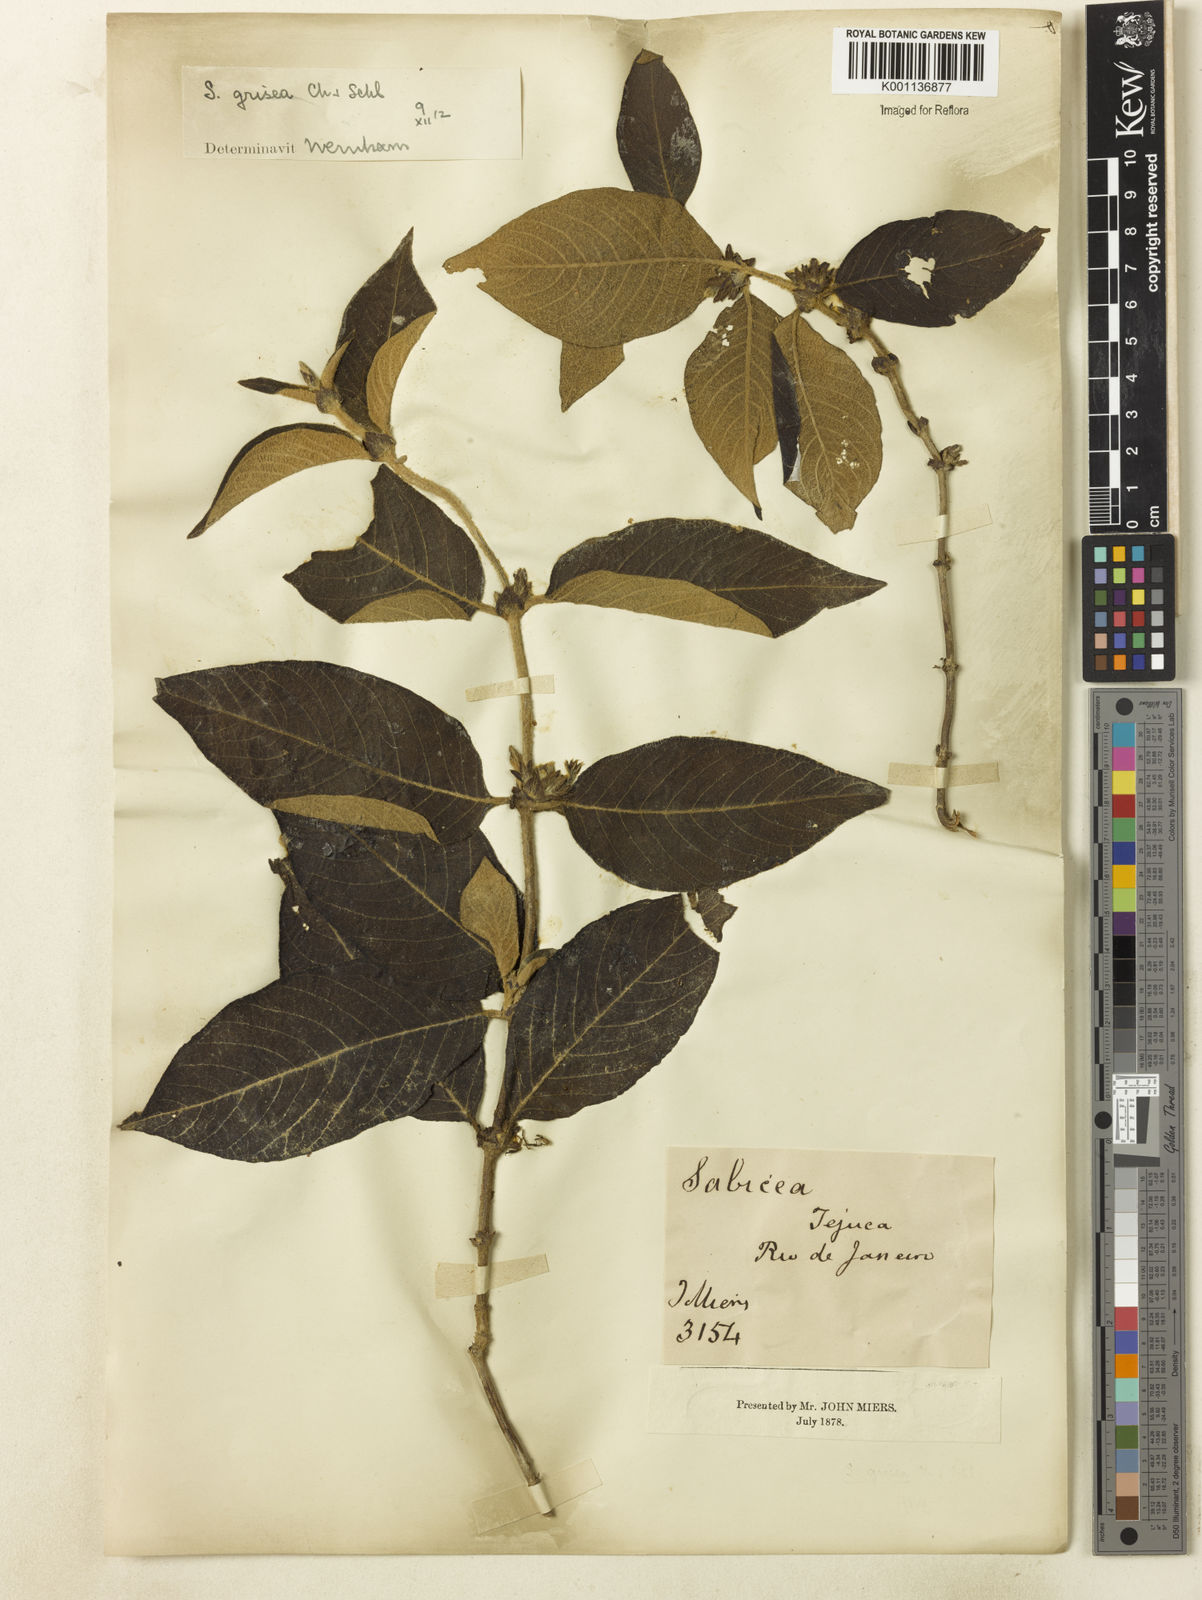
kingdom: Plantae
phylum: Tracheophyta
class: Magnoliopsida
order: Gentianales
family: Rubiaceae
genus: Sabicea
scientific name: Sabicea grisea
